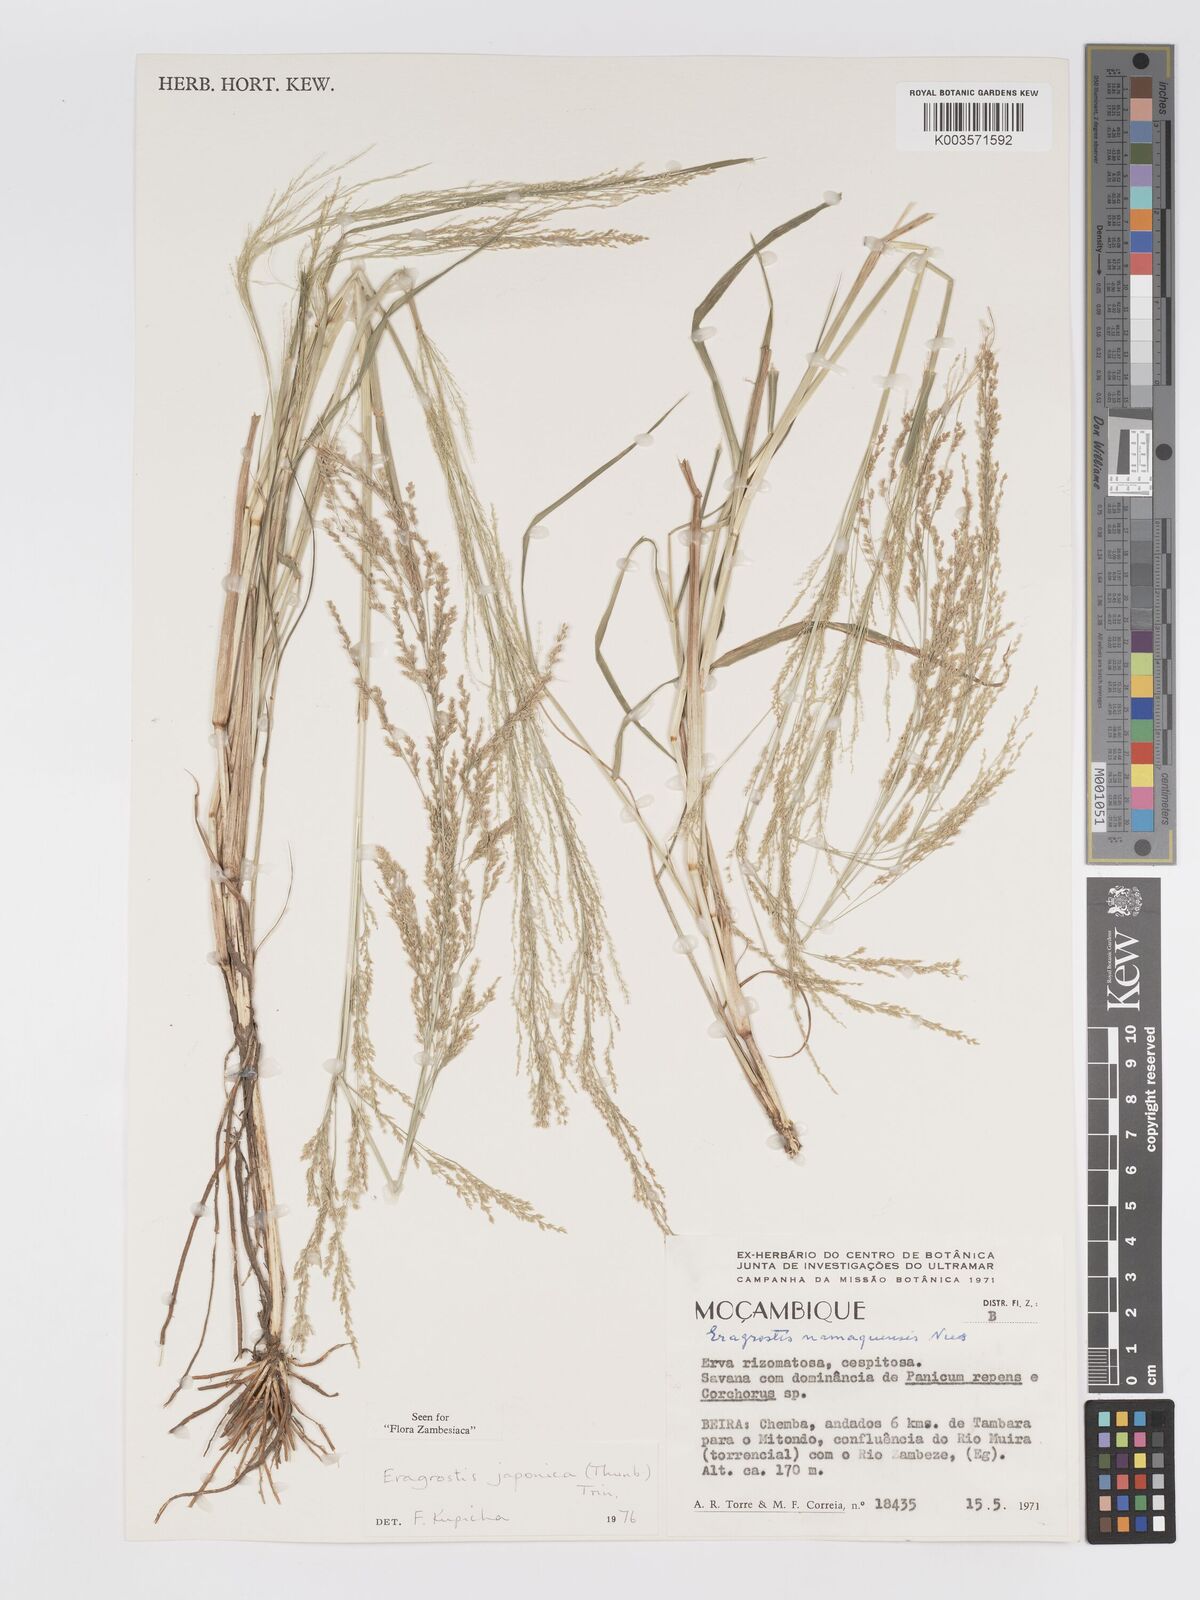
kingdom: Plantae
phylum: Tracheophyta
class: Liliopsida
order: Poales
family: Poaceae
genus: Eragrostis
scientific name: Eragrostis japonica
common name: Pond lovegrass
